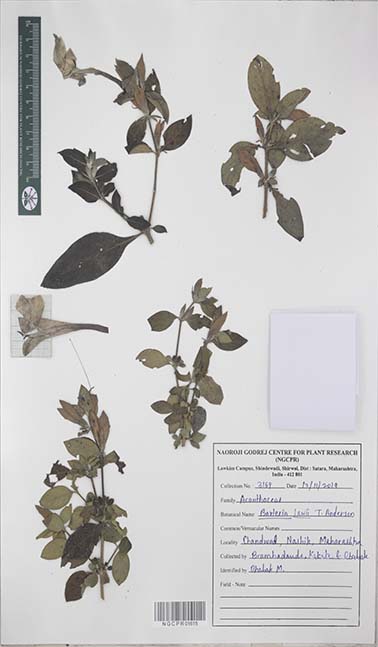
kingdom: Plantae
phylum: Tracheophyta
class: Magnoliopsida
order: Lamiales
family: Acanthaceae
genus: Barleria
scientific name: Barleria lawii
